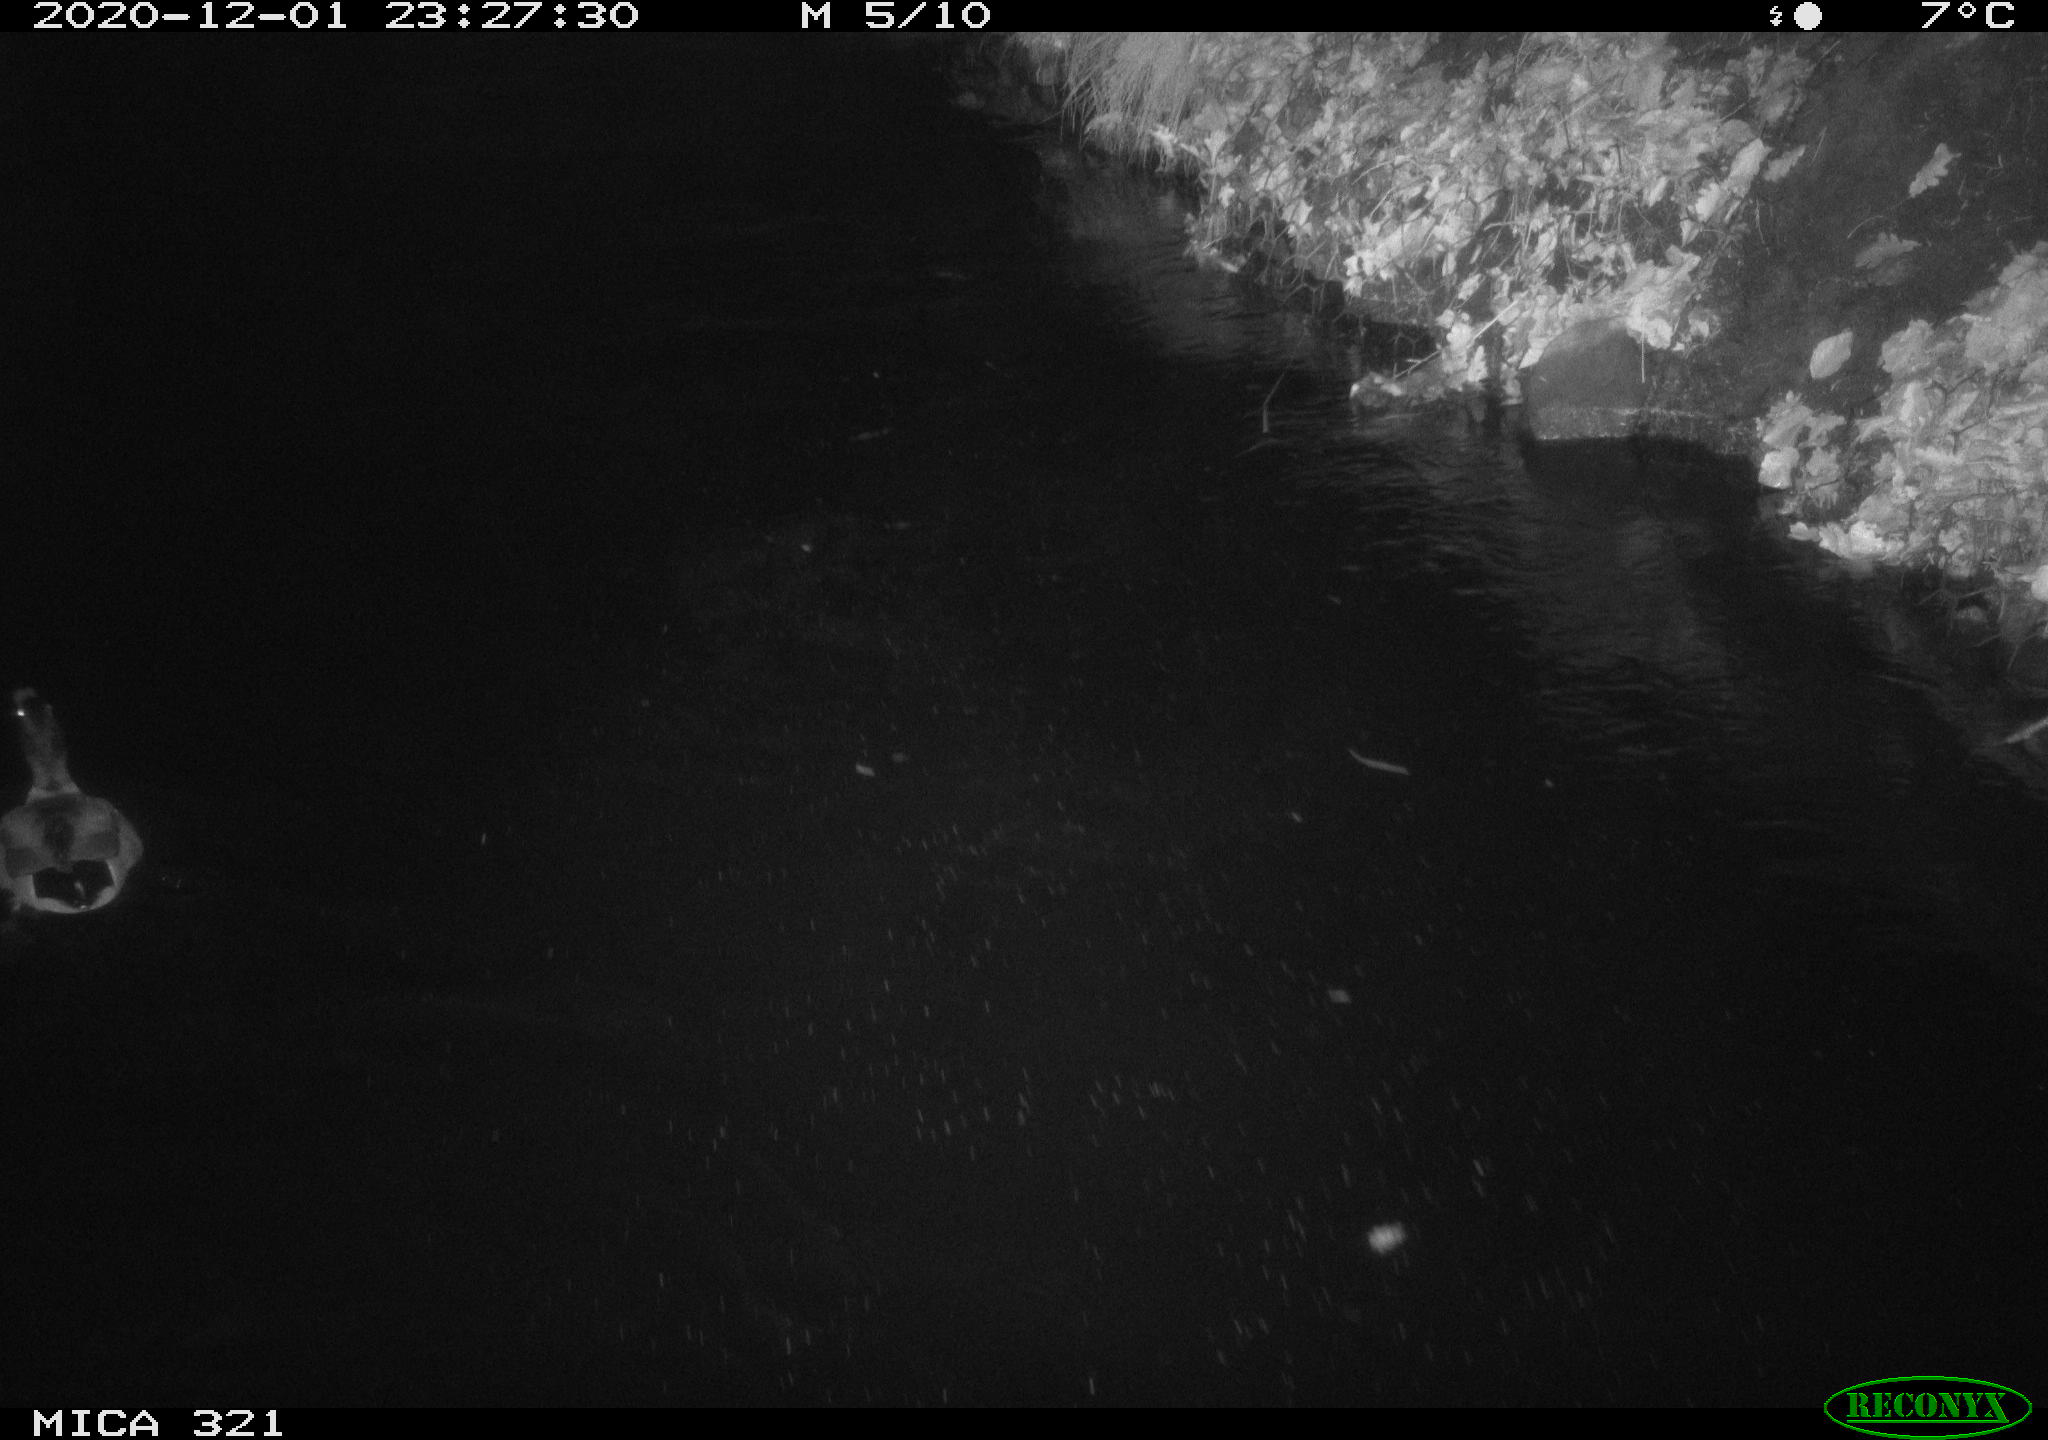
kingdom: Animalia
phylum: Chordata
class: Aves
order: Anseriformes
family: Anatidae
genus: Anas
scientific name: Anas platyrhynchos
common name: Mallard
